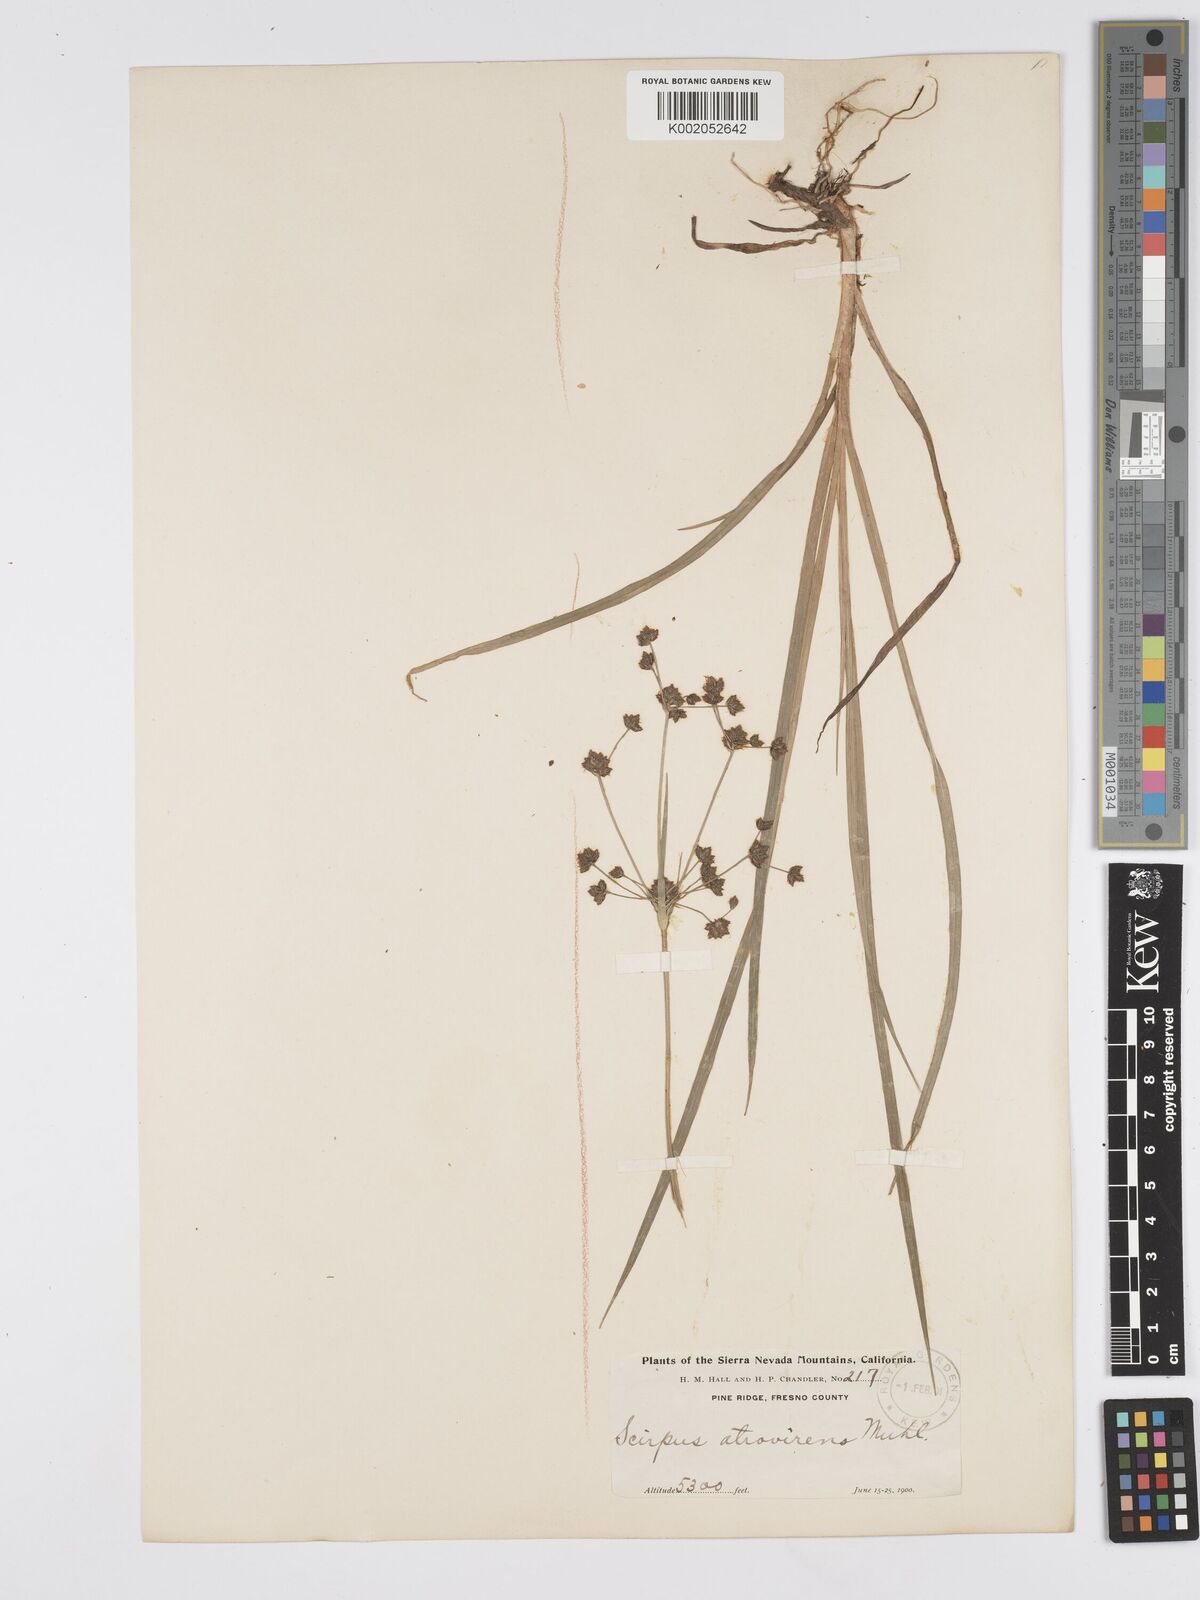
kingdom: Plantae
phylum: Tracheophyta
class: Liliopsida
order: Poales
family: Cyperaceae
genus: Scirpus
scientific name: Scirpus atrovirens
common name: Black bulrush
